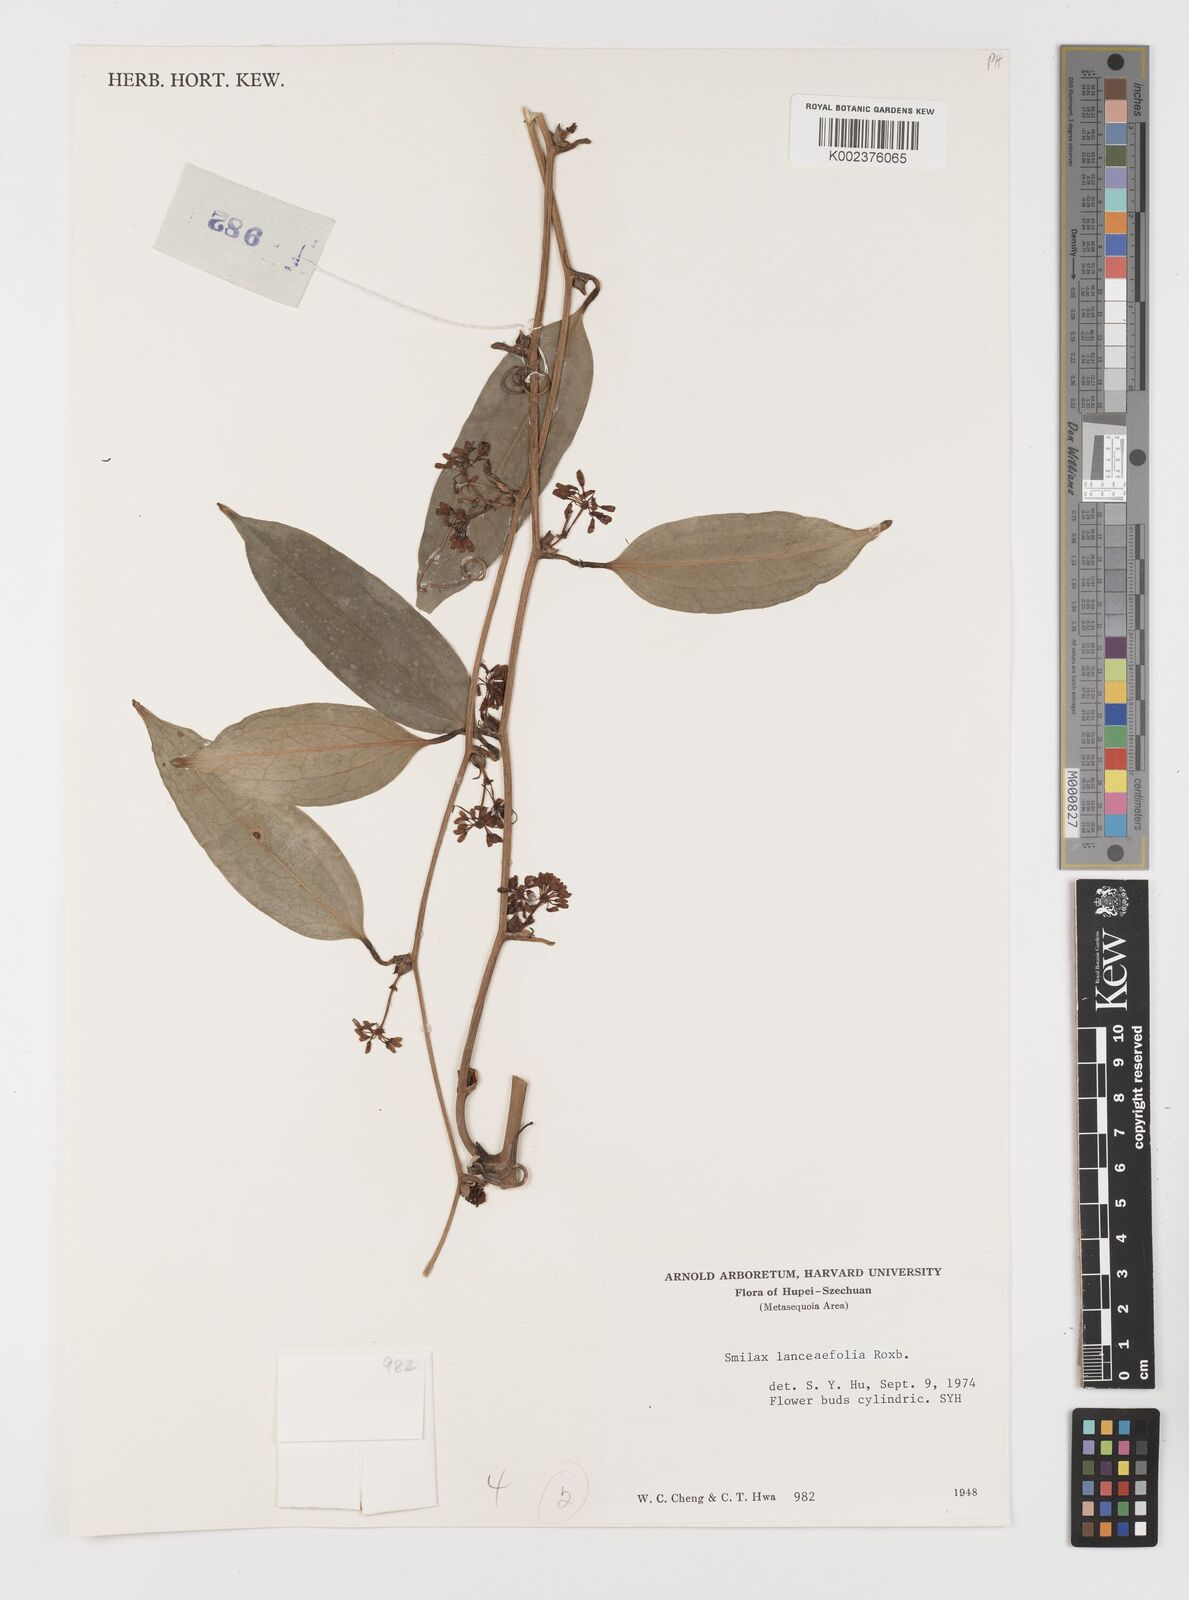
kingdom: Plantae
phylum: Tracheophyta
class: Liliopsida
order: Liliales
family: Smilacaceae
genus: Smilax
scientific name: Smilax lanceifolia
